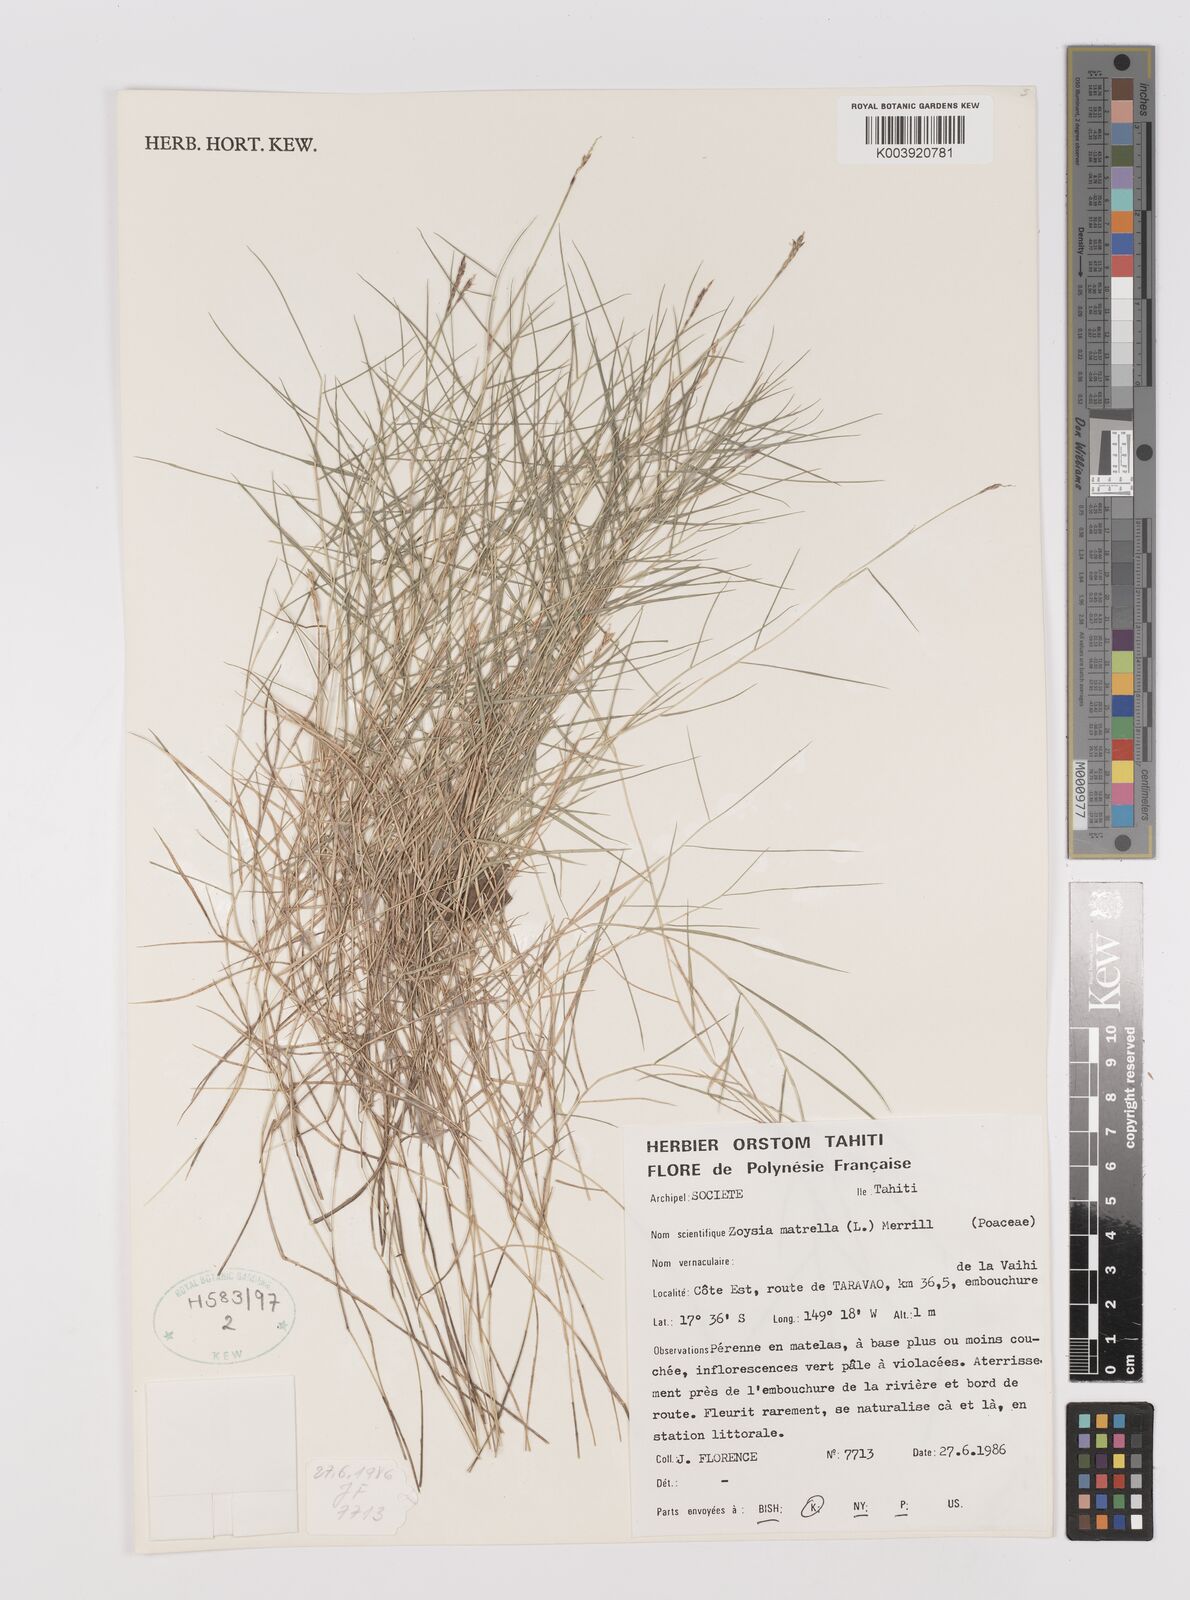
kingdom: Plantae
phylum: Tracheophyta
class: Liliopsida
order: Poales
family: Poaceae
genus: Zoysia
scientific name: Zoysia matrella
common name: Manila grass
